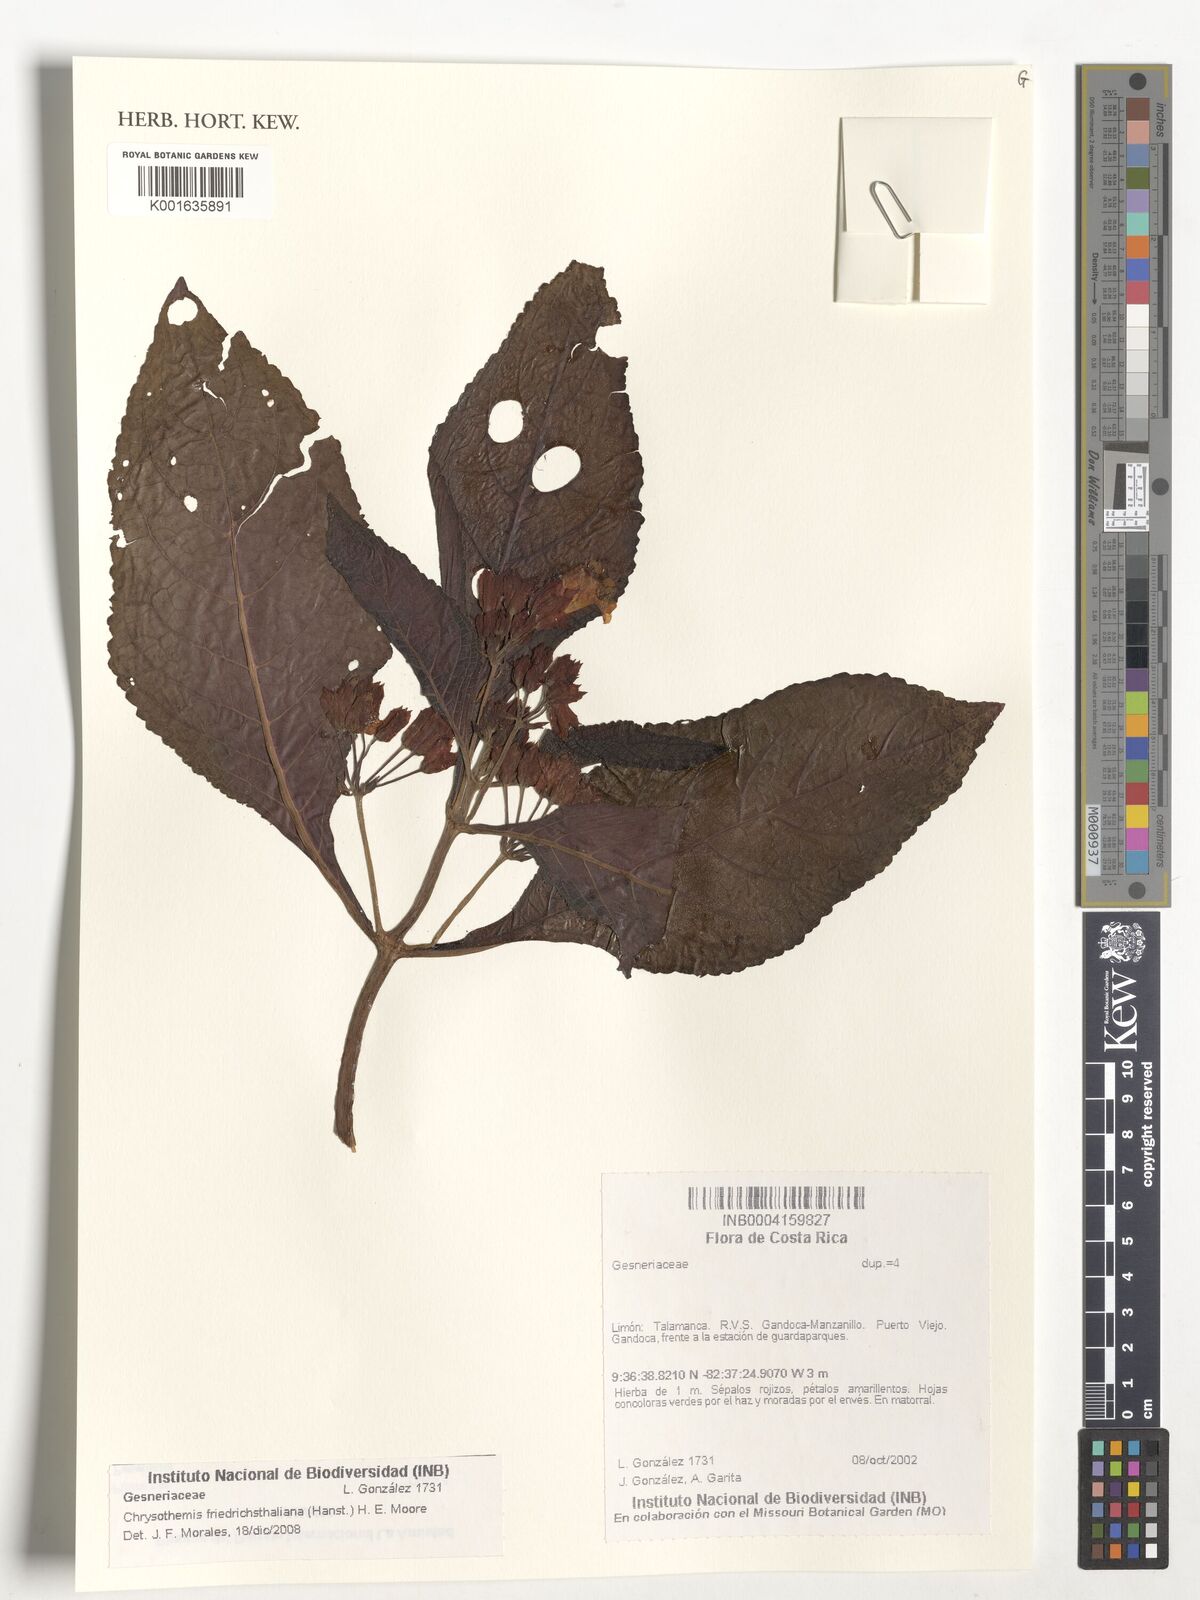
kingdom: Plantae
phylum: Tracheophyta
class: Magnoliopsida
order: Lamiales
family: Gesneriaceae
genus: Chrysothemis
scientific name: Chrysothemis friedrichsthaliana
